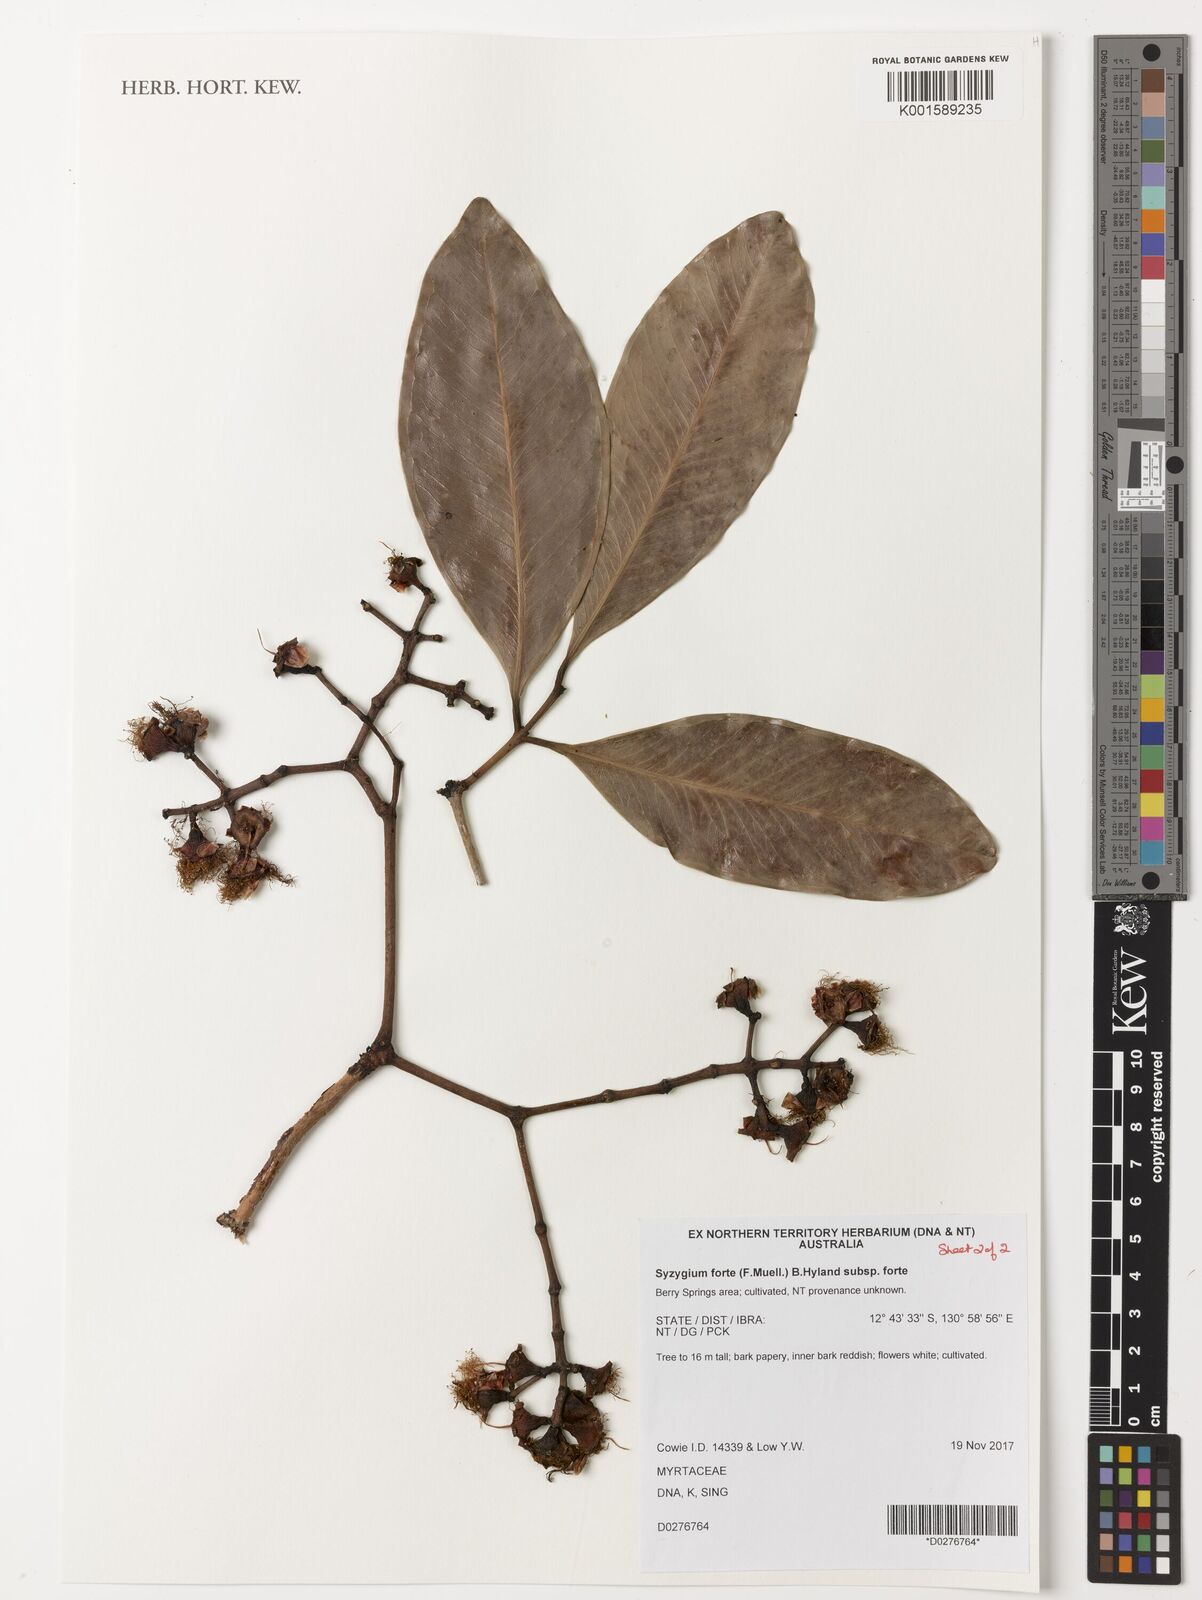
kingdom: Plantae
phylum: Tracheophyta
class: Magnoliopsida
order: Myrtales
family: Myrtaceae
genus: Syzygium
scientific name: Syzygium forte
